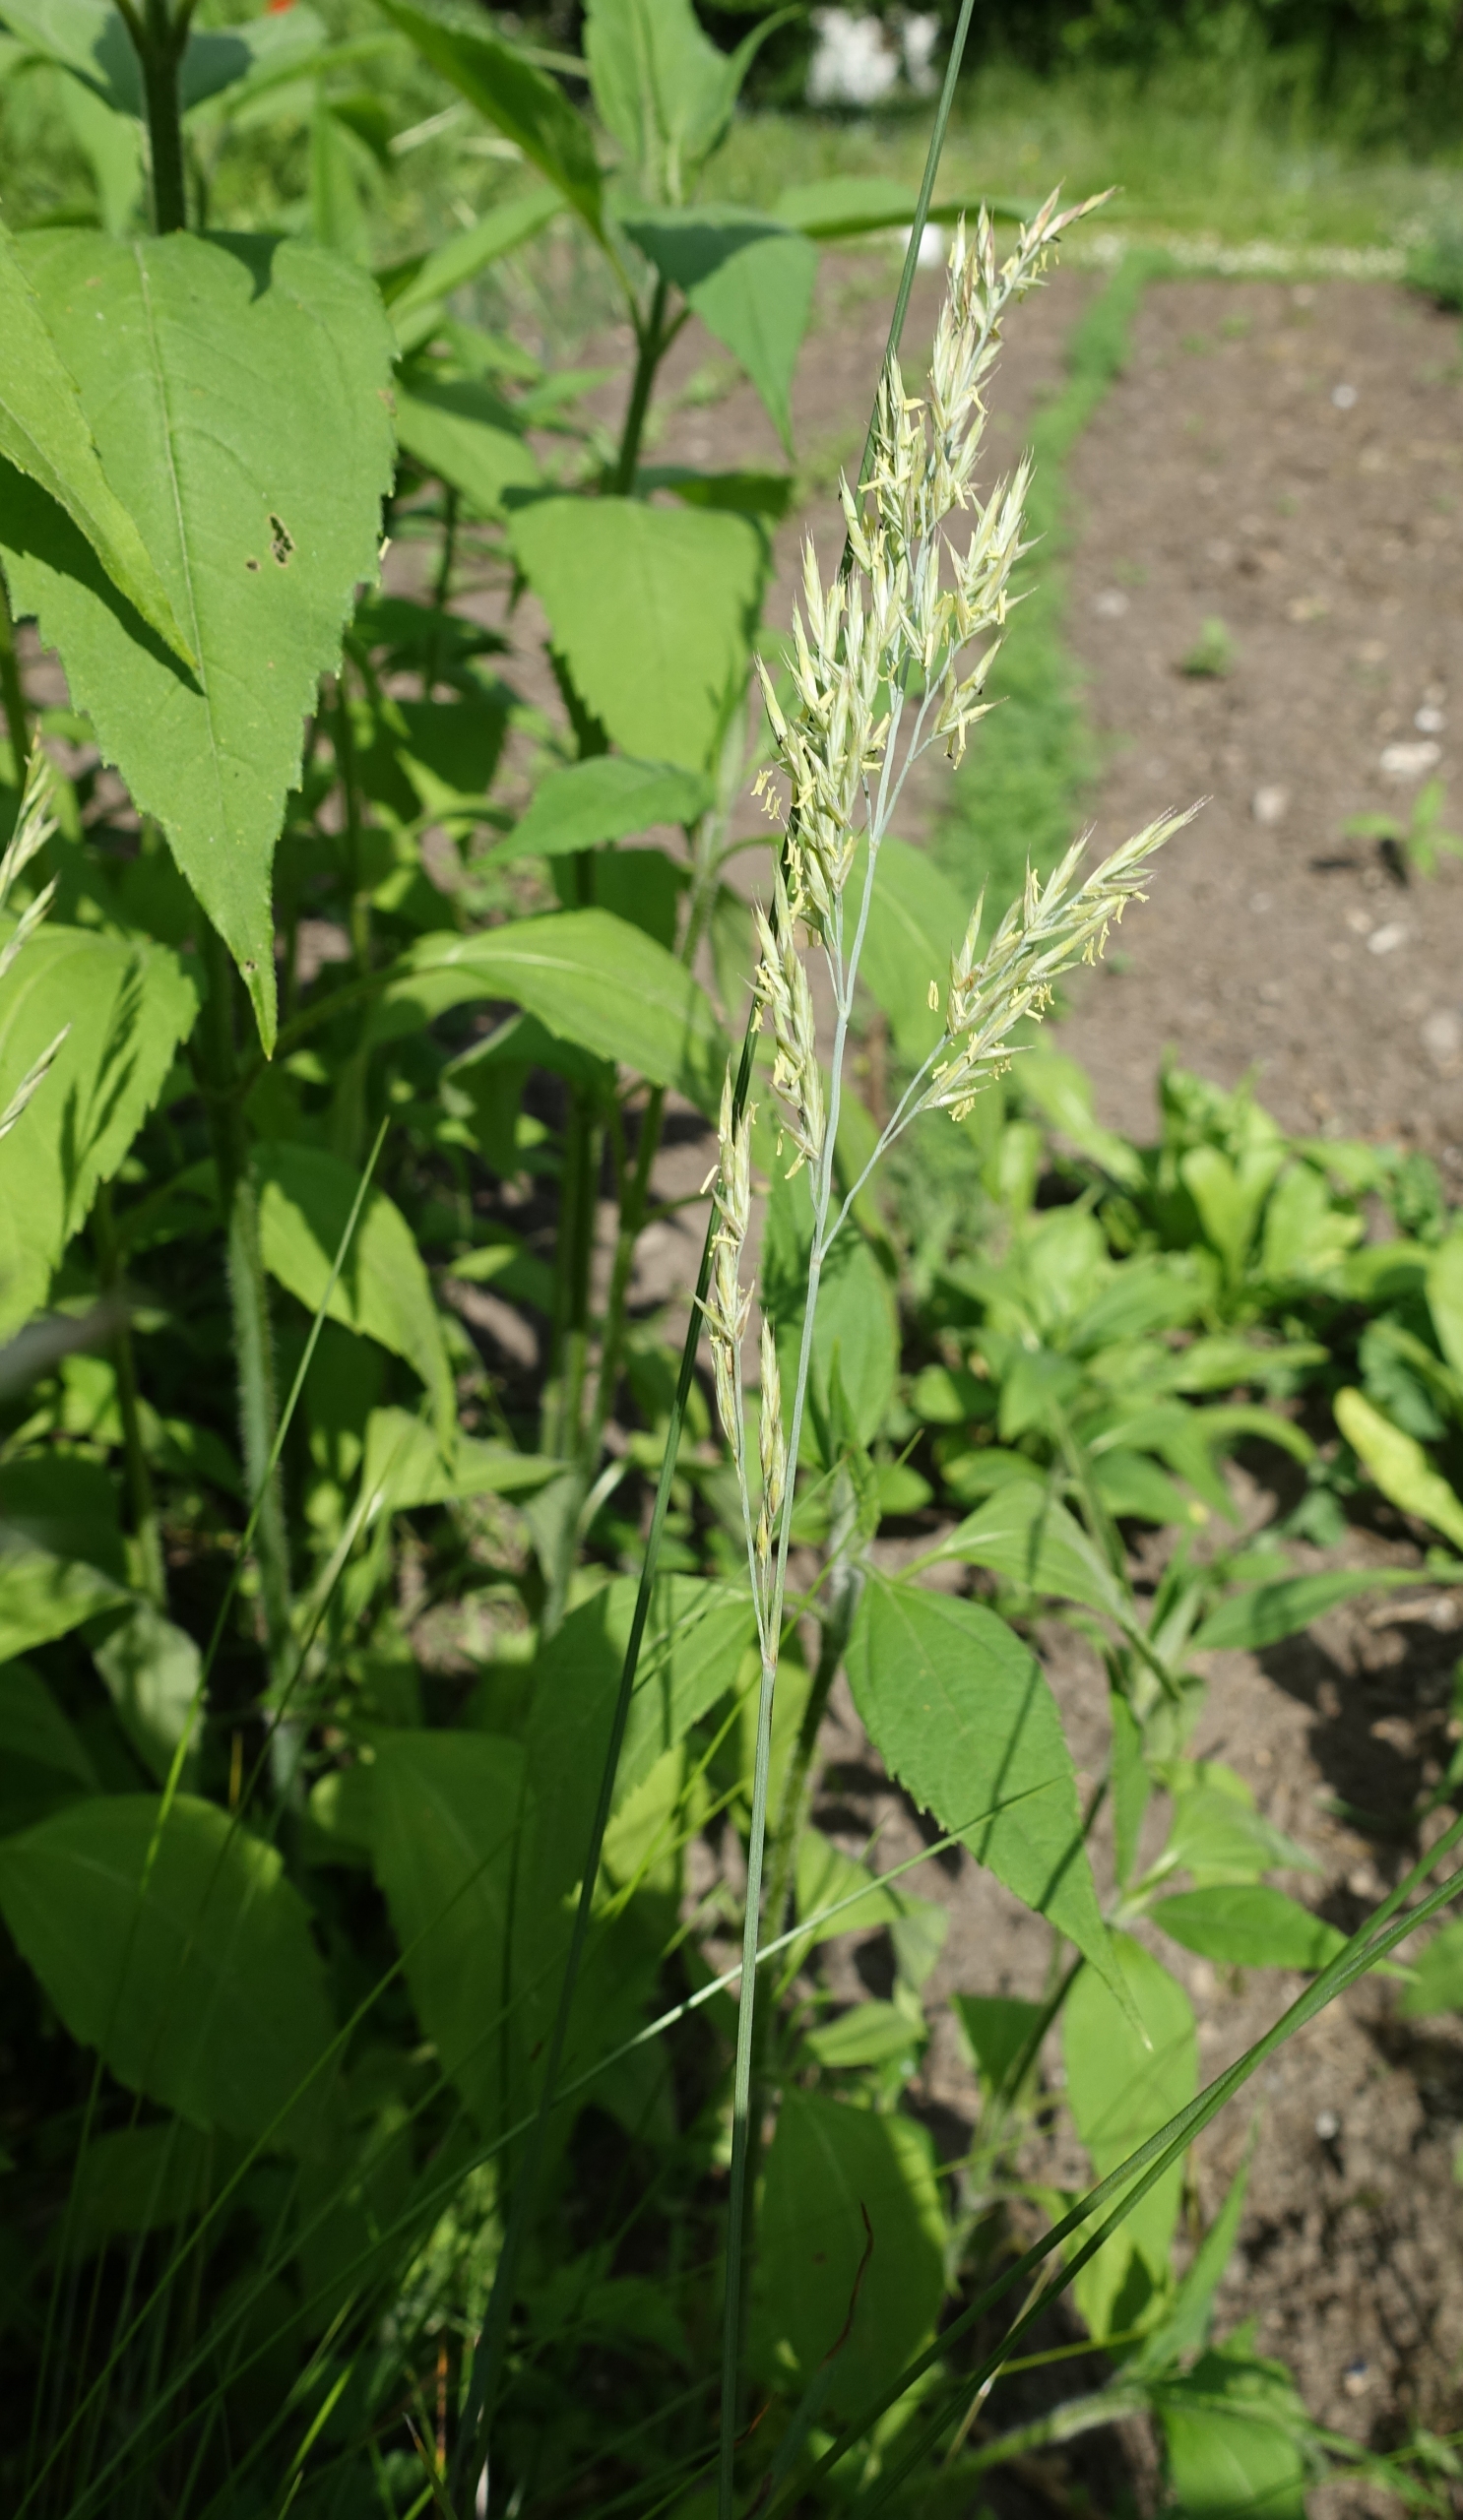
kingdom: Plantae
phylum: Tracheophyta
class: Liliopsida
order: Poales
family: Poaceae
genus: Festuca
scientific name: Festuca rubra
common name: Rød svingel
